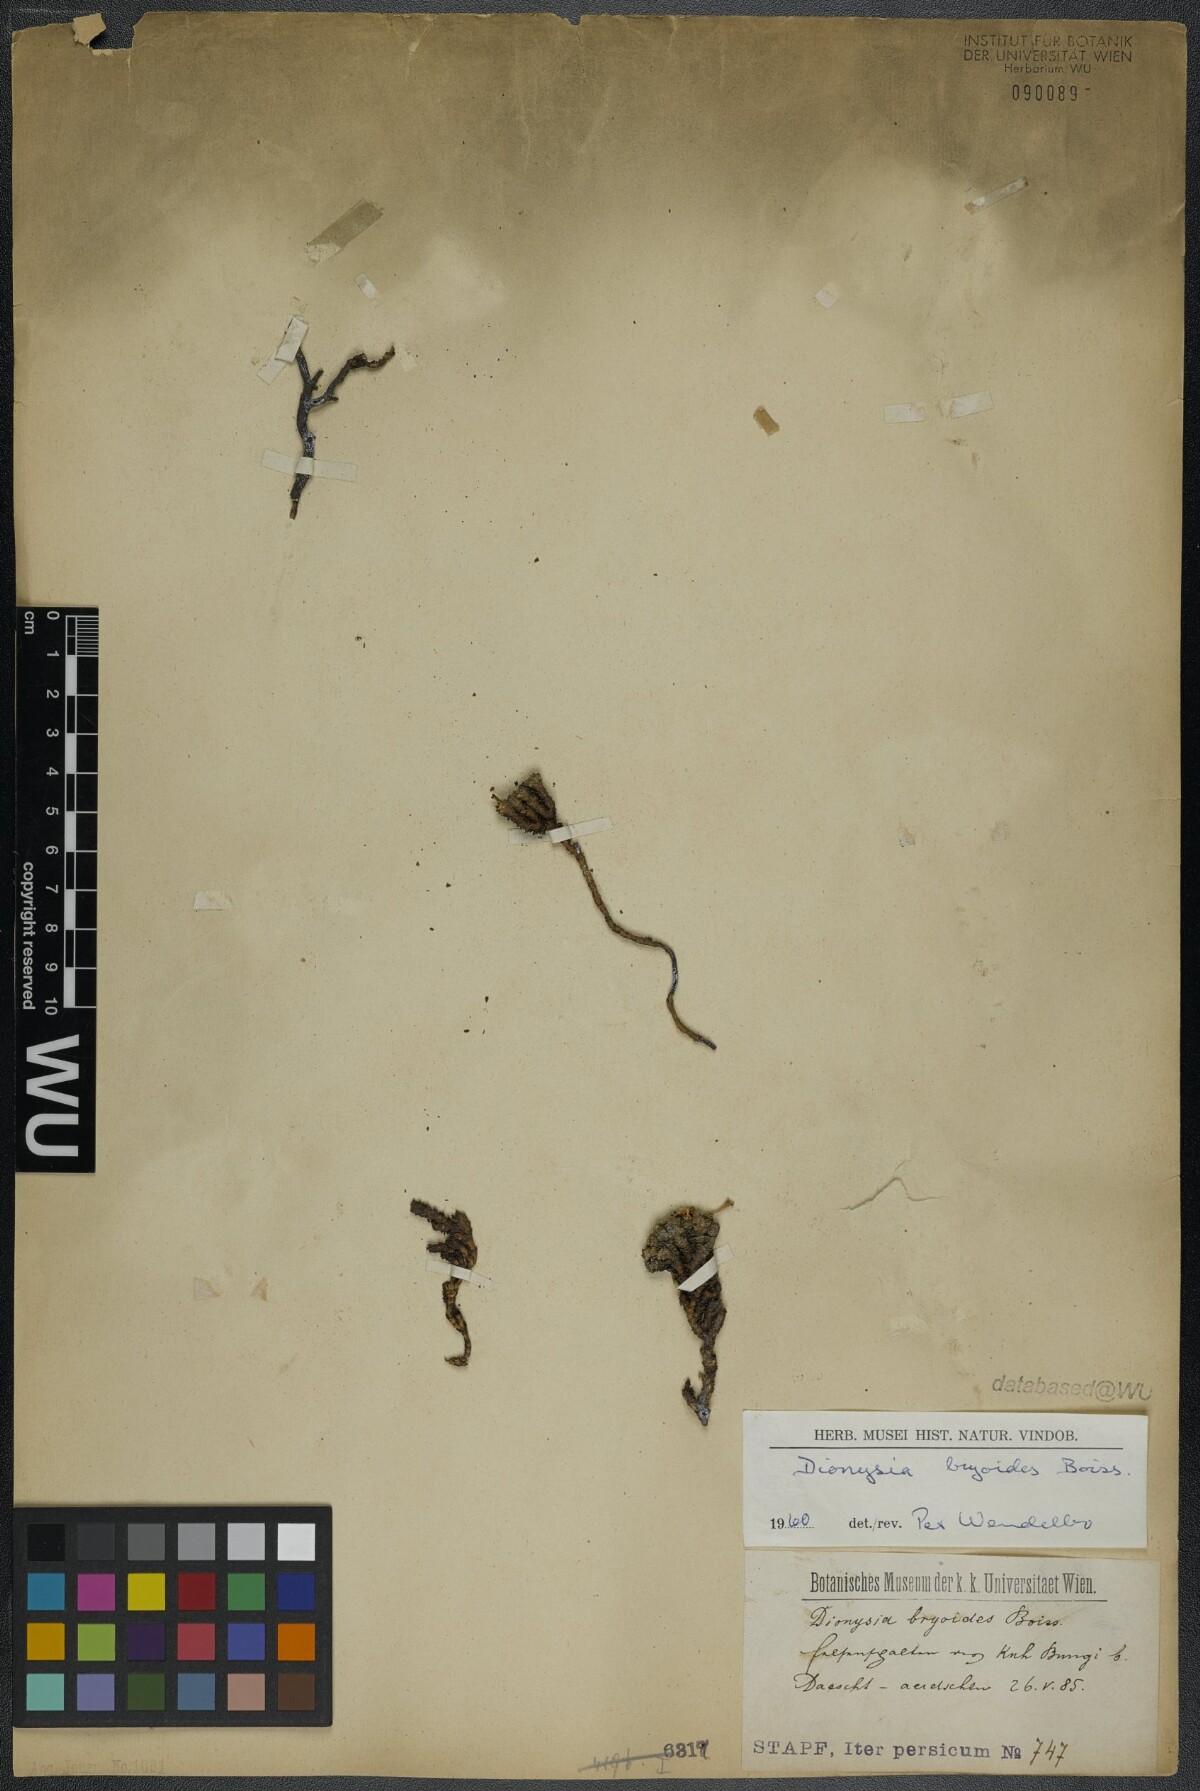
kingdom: Plantae
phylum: Tracheophyta
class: Magnoliopsida
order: Ericales
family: Primulaceae
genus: Dionysia
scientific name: Dionysia bryoides
